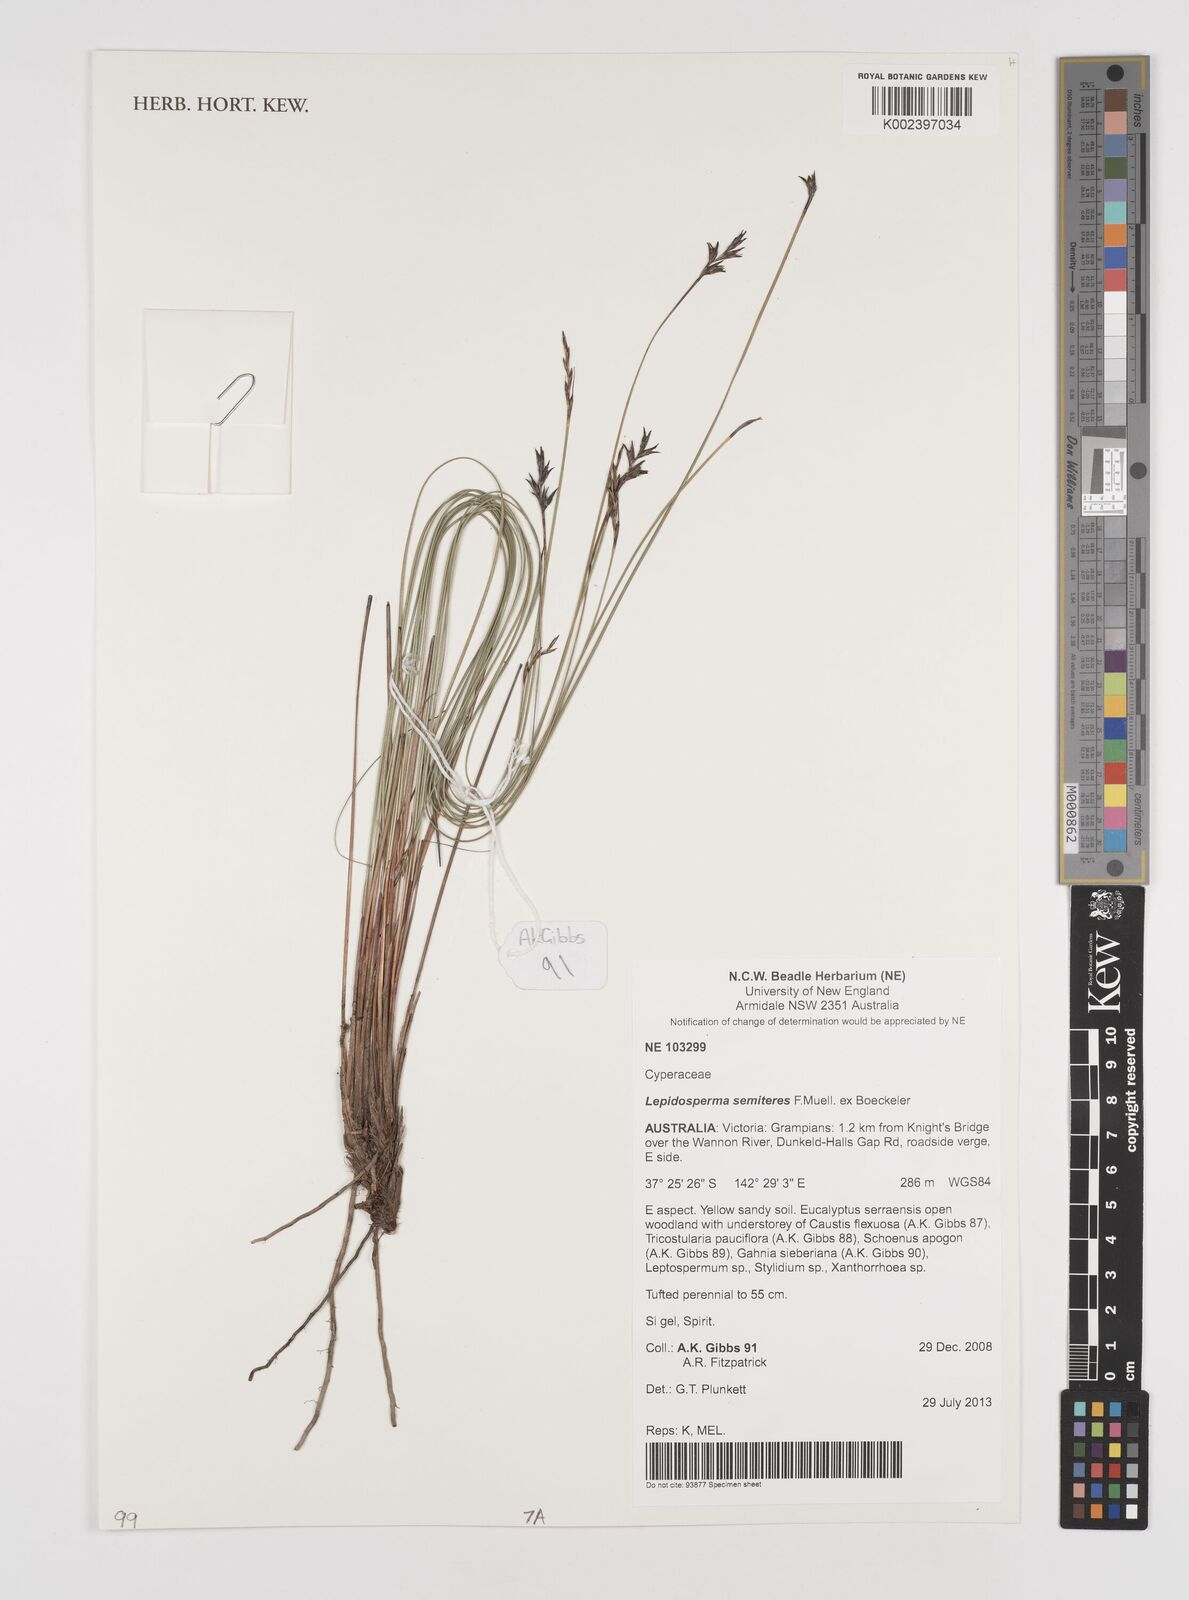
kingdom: Plantae
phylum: Tracheophyta
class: Liliopsida
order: Poales
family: Cyperaceae
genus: Lepidosperma
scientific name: Lepidosperma semiteres
